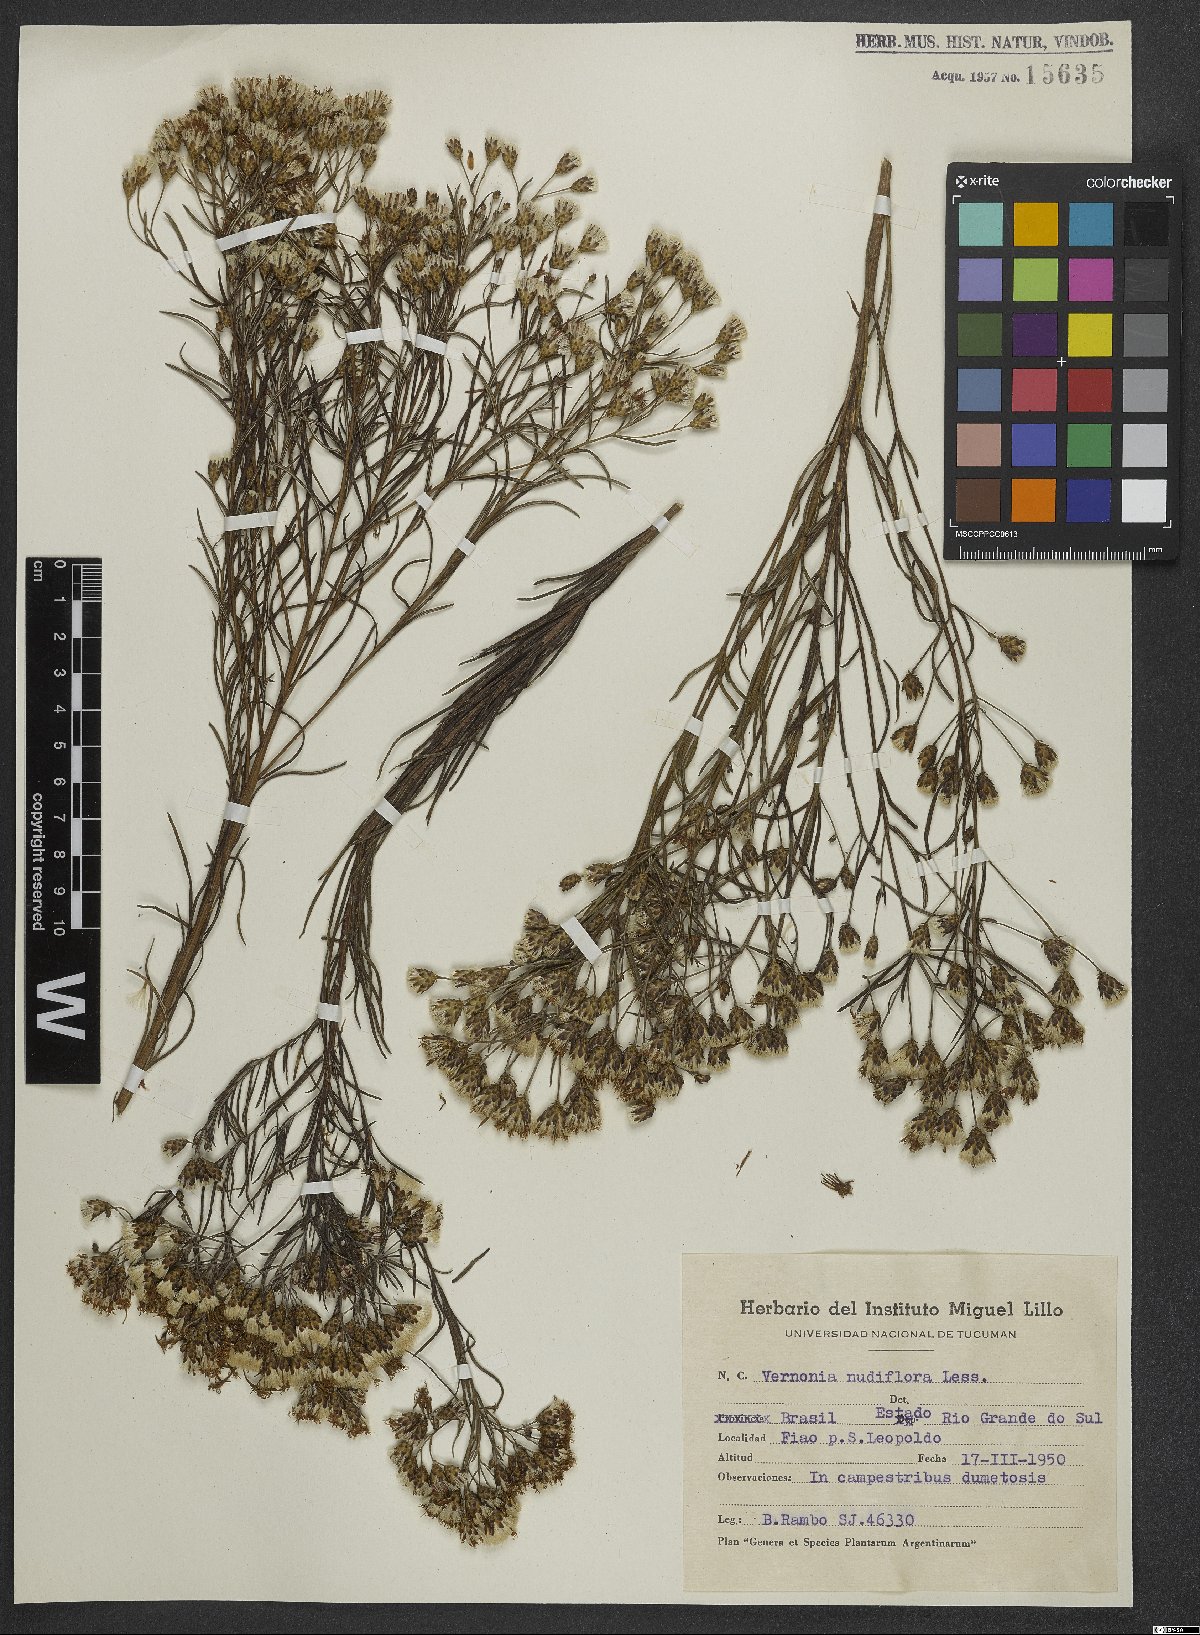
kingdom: Plantae
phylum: Tracheophyta
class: Magnoliopsida
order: Asterales
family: Asteraceae
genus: Vernonanthura
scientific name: Vernonanthura nudiflora
